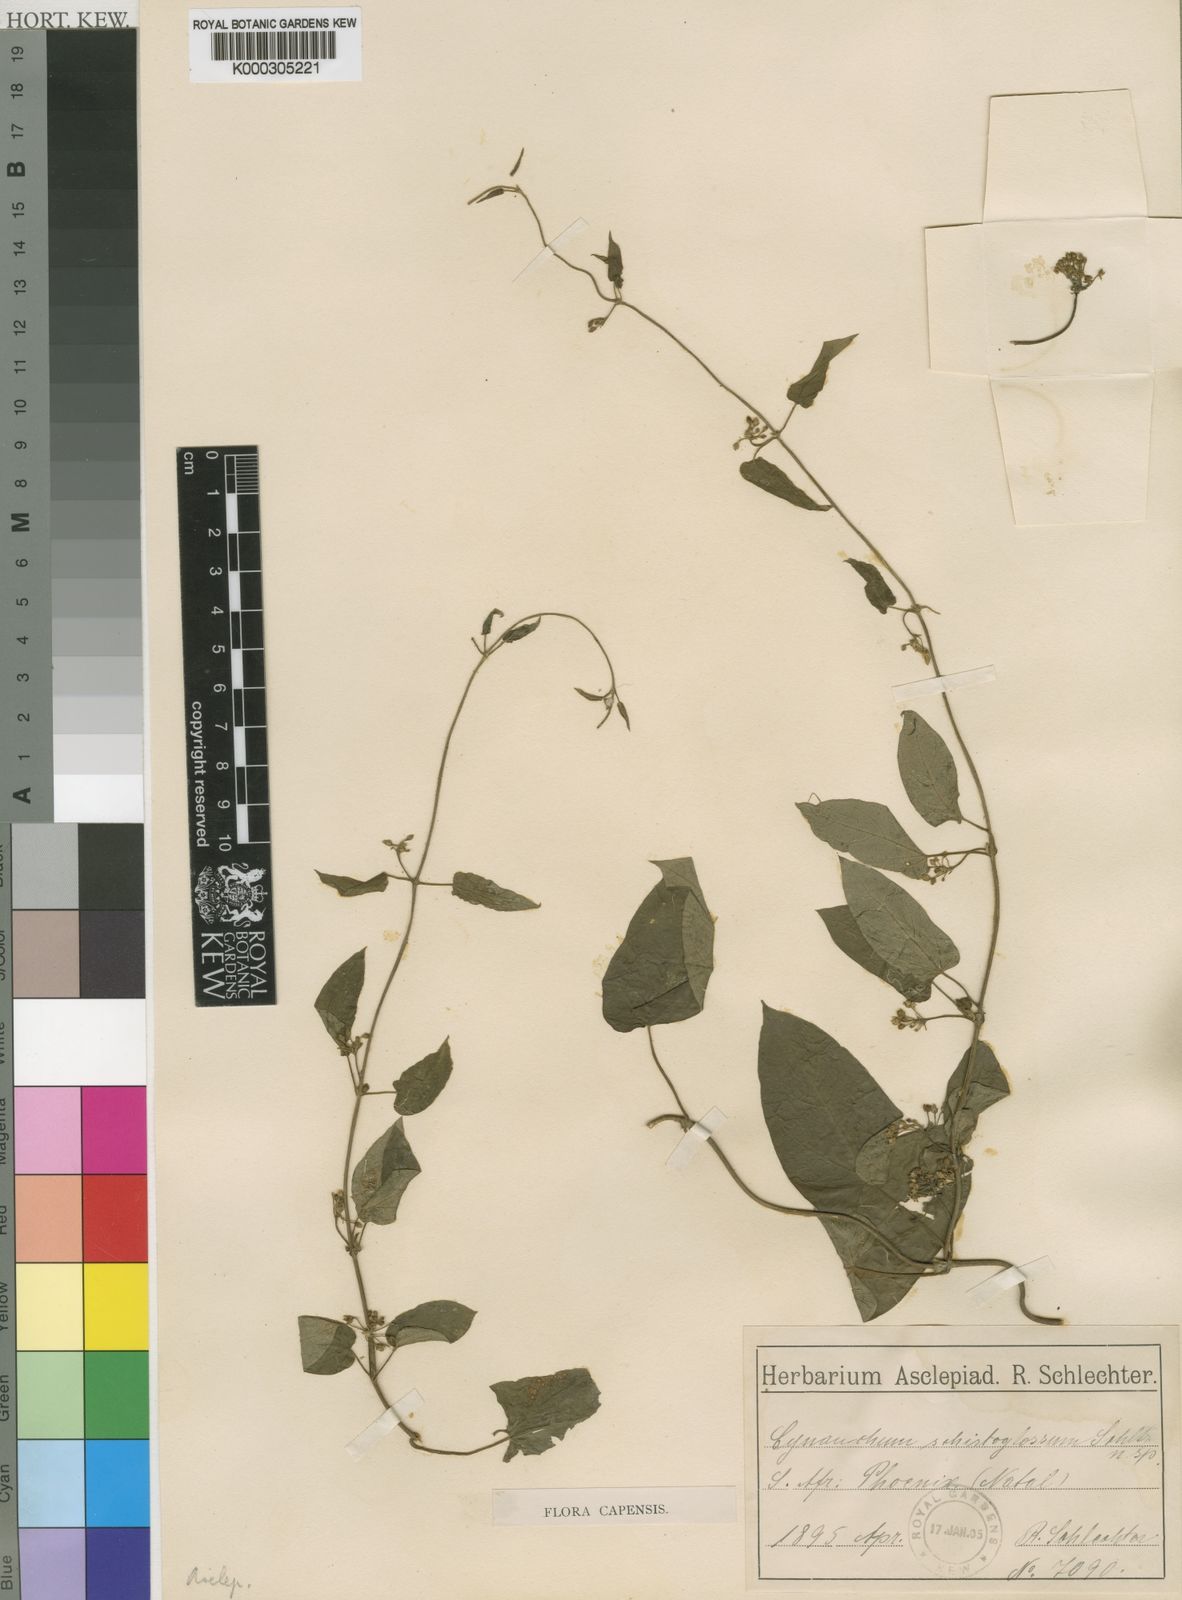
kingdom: Plantae
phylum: Tracheophyta
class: Magnoliopsida
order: Gentianales
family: Apocynaceae
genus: Cynanchum
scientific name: Cynanchum schistoglossum
